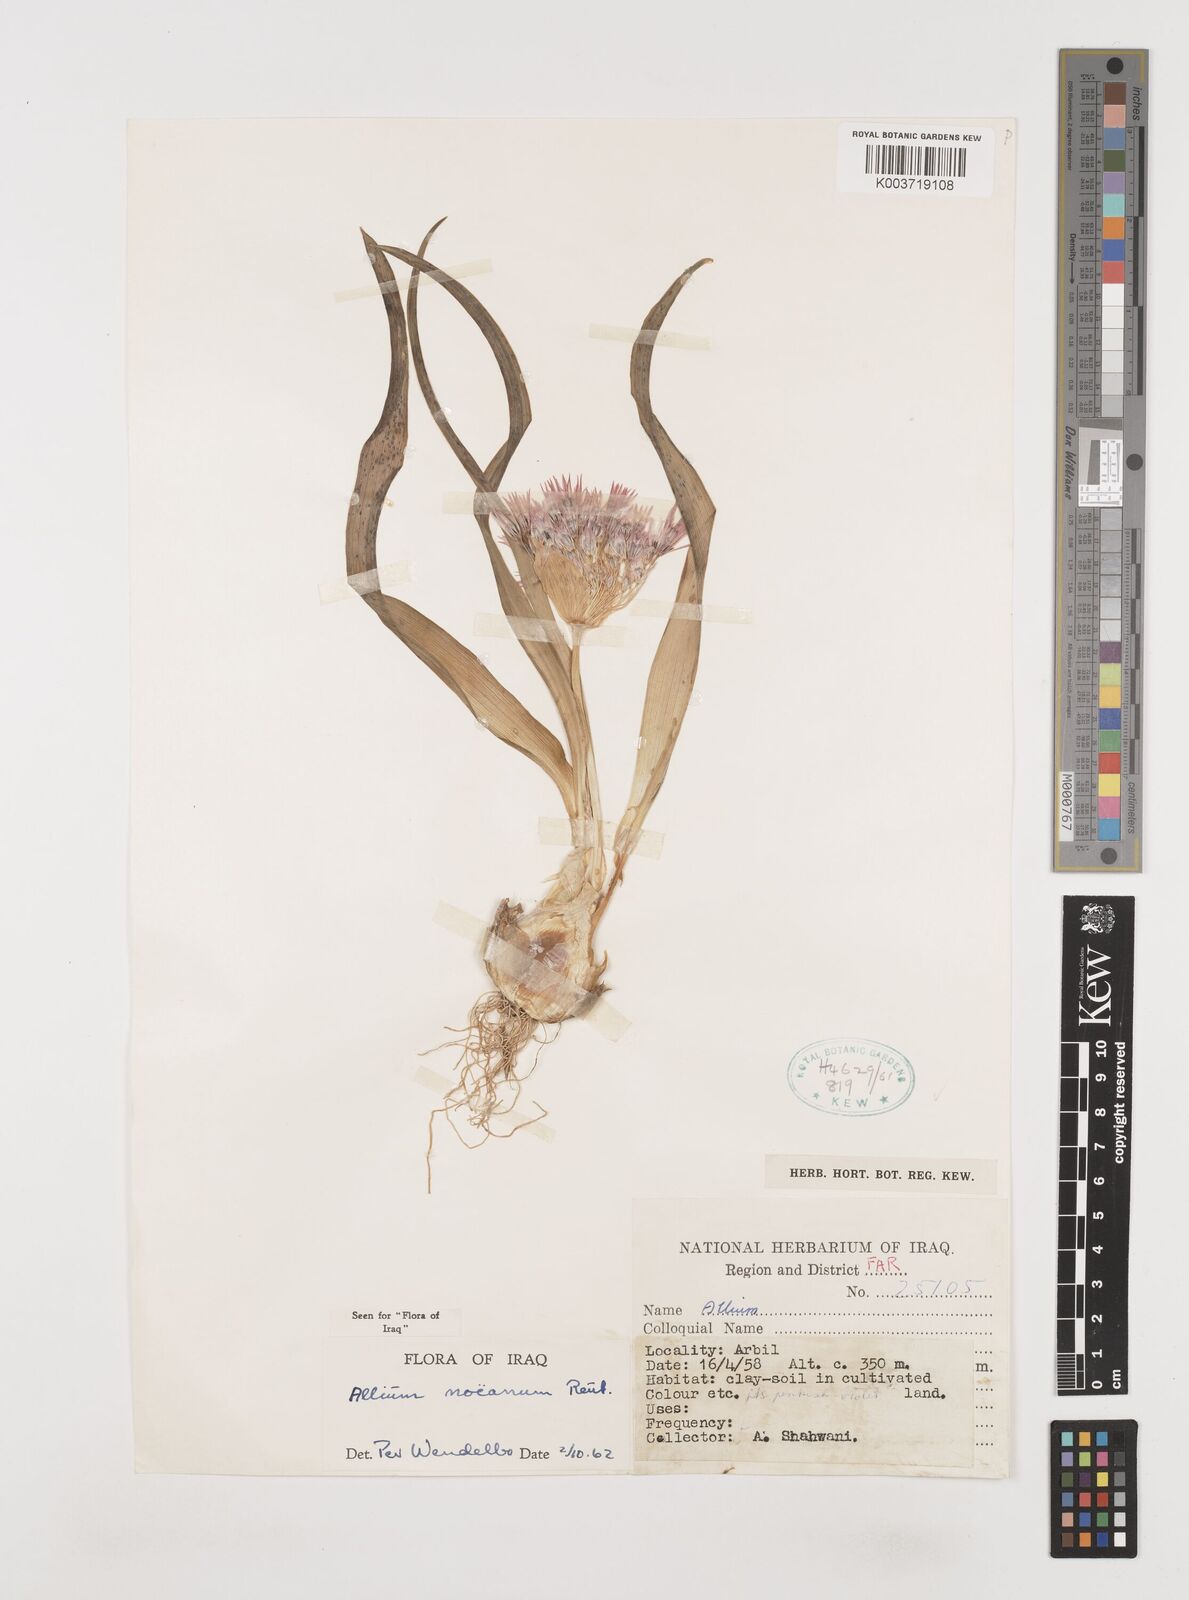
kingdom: Plantae
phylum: Tracheophyta
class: Liliopsida
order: Asparagales
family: Amaryllidaceae
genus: Allium
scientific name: Allium noeanum
